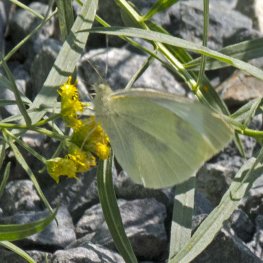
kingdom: Animalia
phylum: Arthropoda
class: Insecta
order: Lepidoptera
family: Pieridae
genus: Pieris
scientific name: Pieris rapae
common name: Cabbage White
